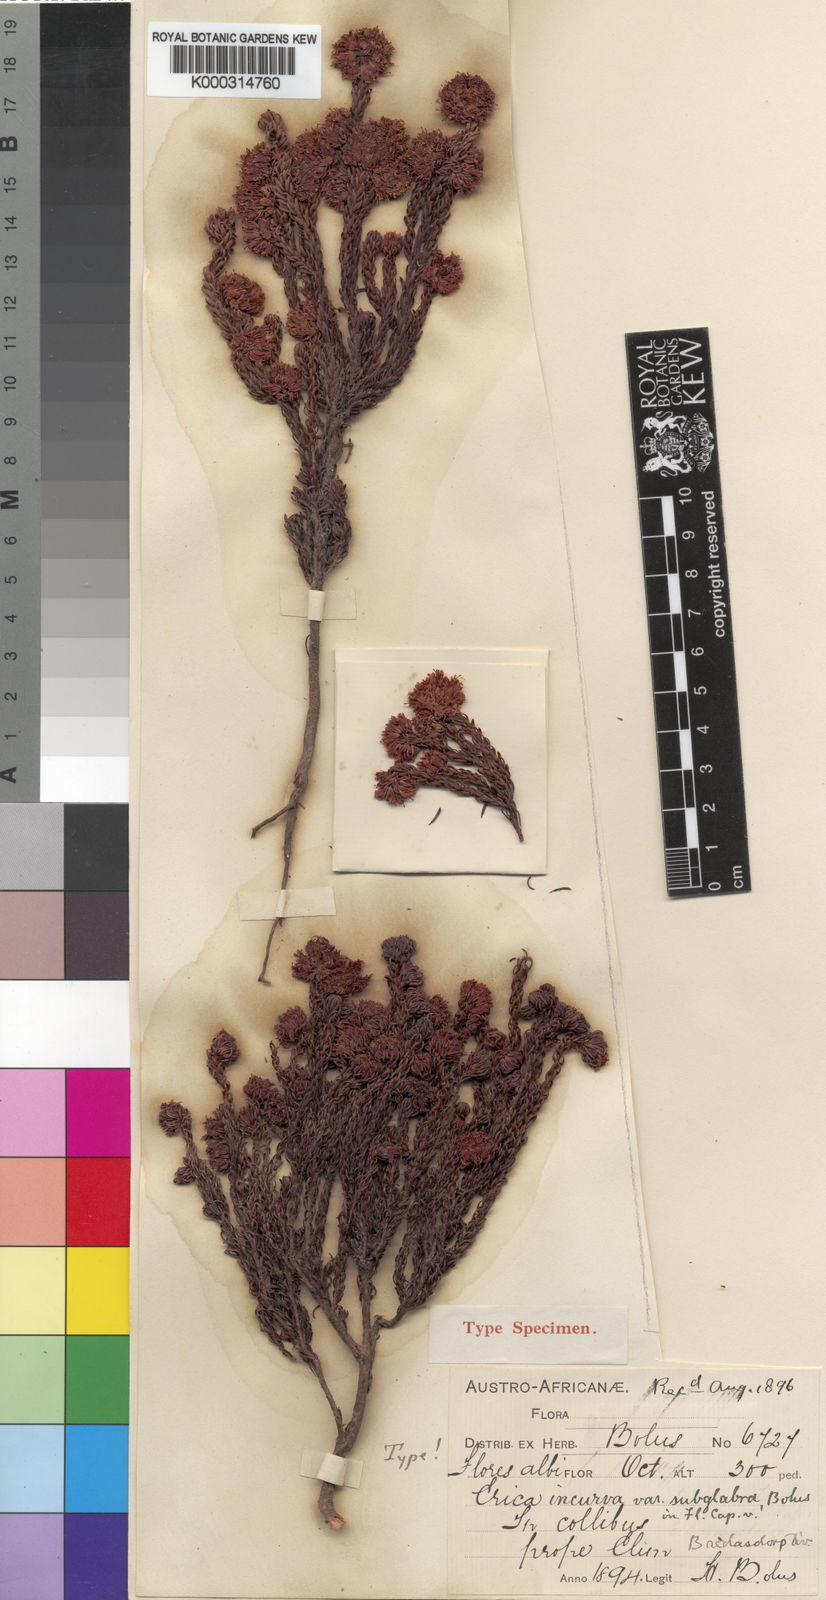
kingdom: Plantae
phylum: Tracheophyta
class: Magnoliopsida
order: Ericales
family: Ericaceae
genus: Erica
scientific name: Erica
